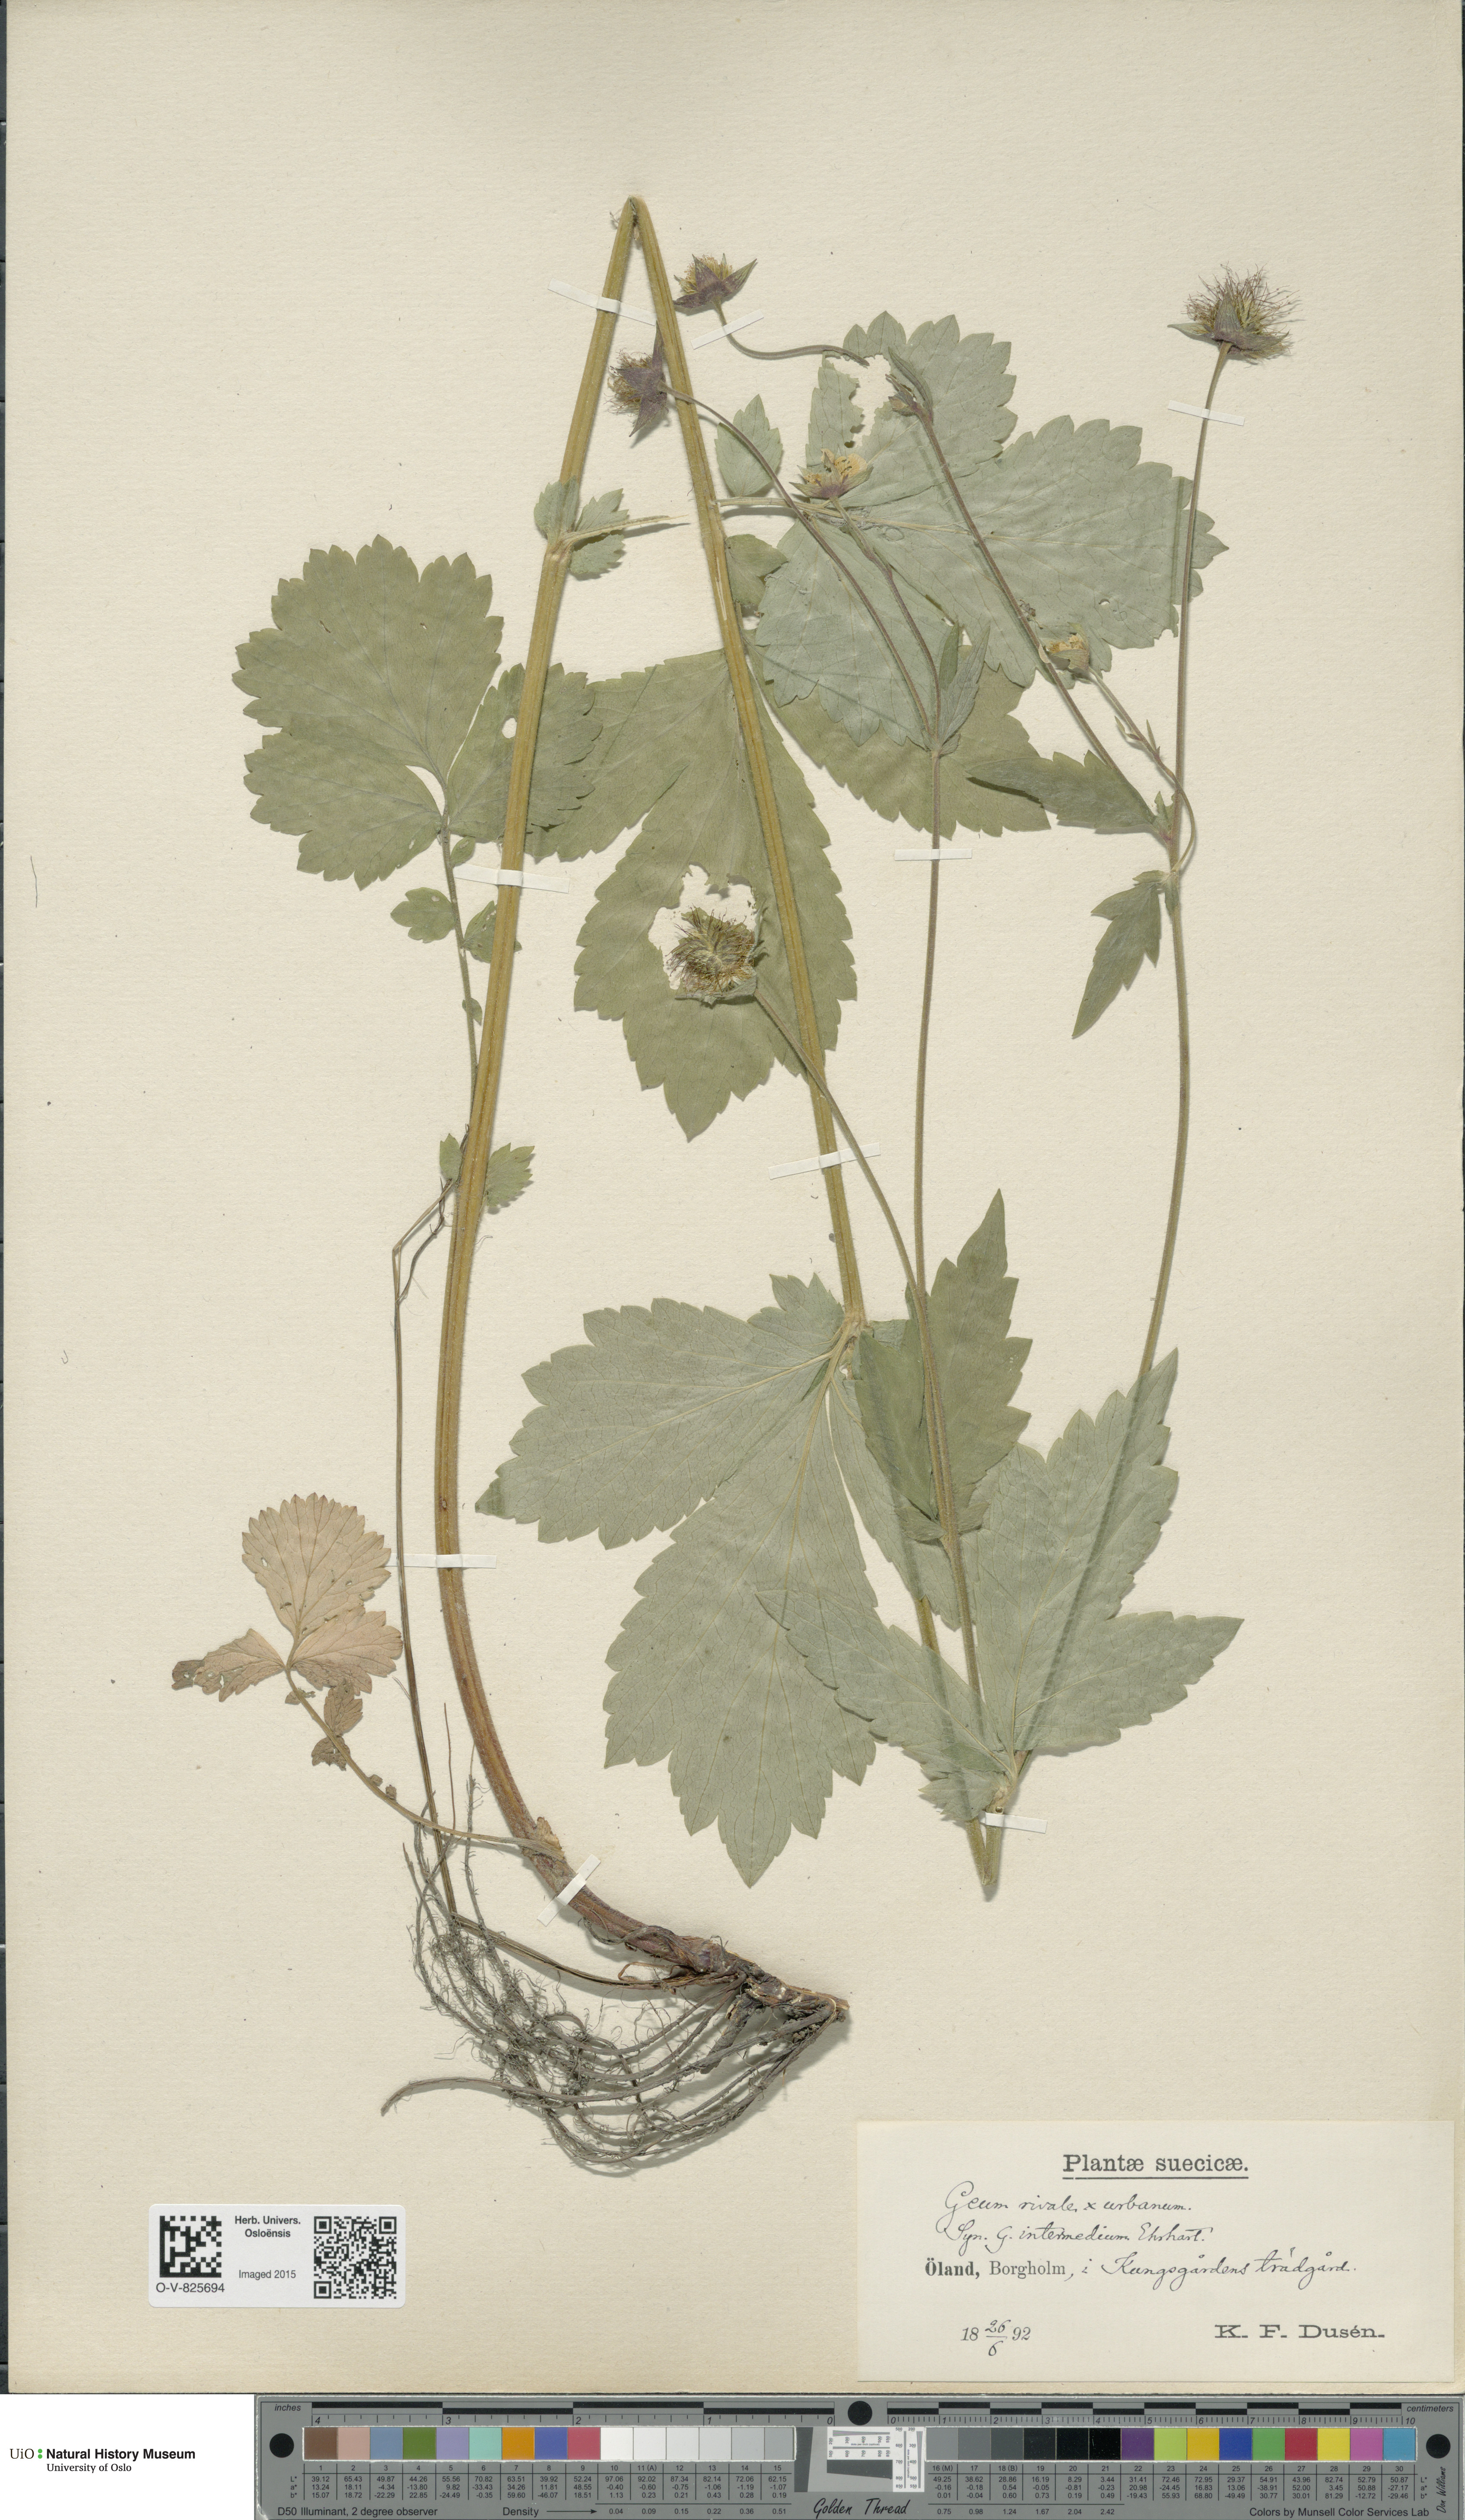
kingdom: Plantae
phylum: Tracheophyta
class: Magnoliopsida
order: Rosales
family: Rosaceae
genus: Geum
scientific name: Geum
